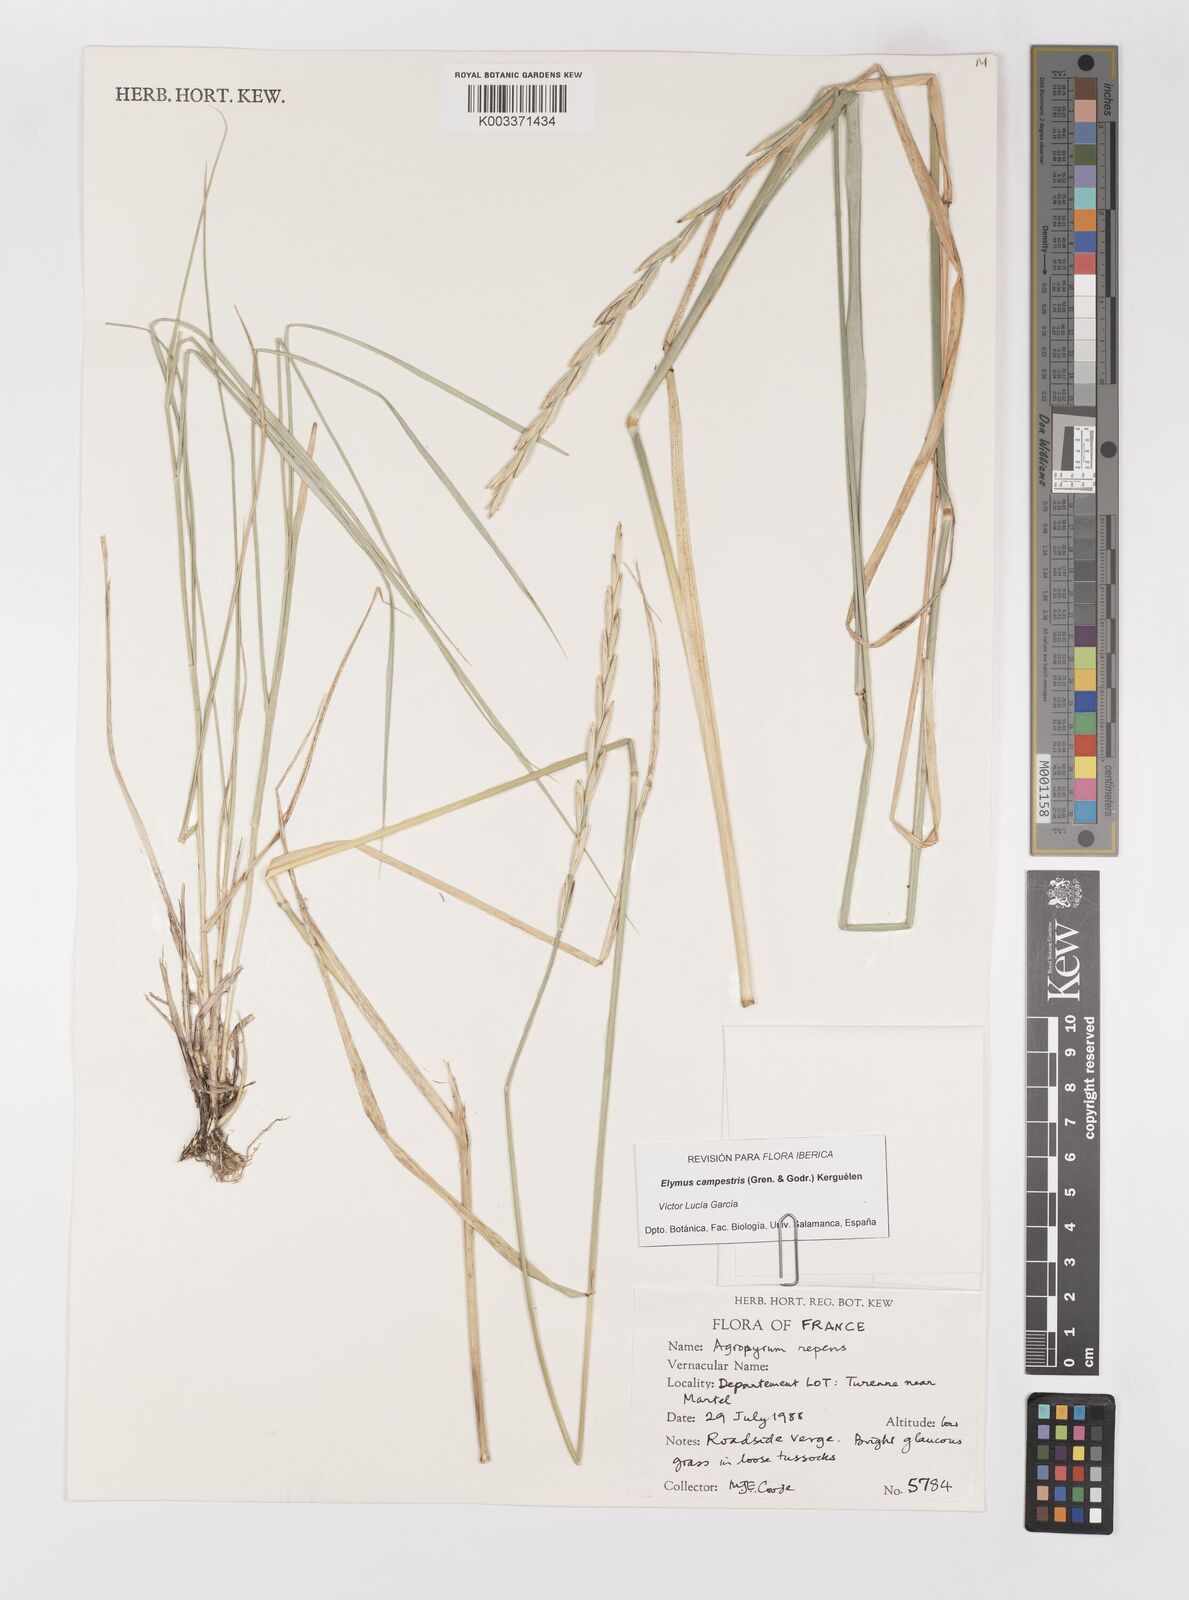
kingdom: Plantae
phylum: Tracheophyta
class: Liliopsida
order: Poales
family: Poaceae
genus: Elymus
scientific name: Elymus repens
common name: Quackgrass
